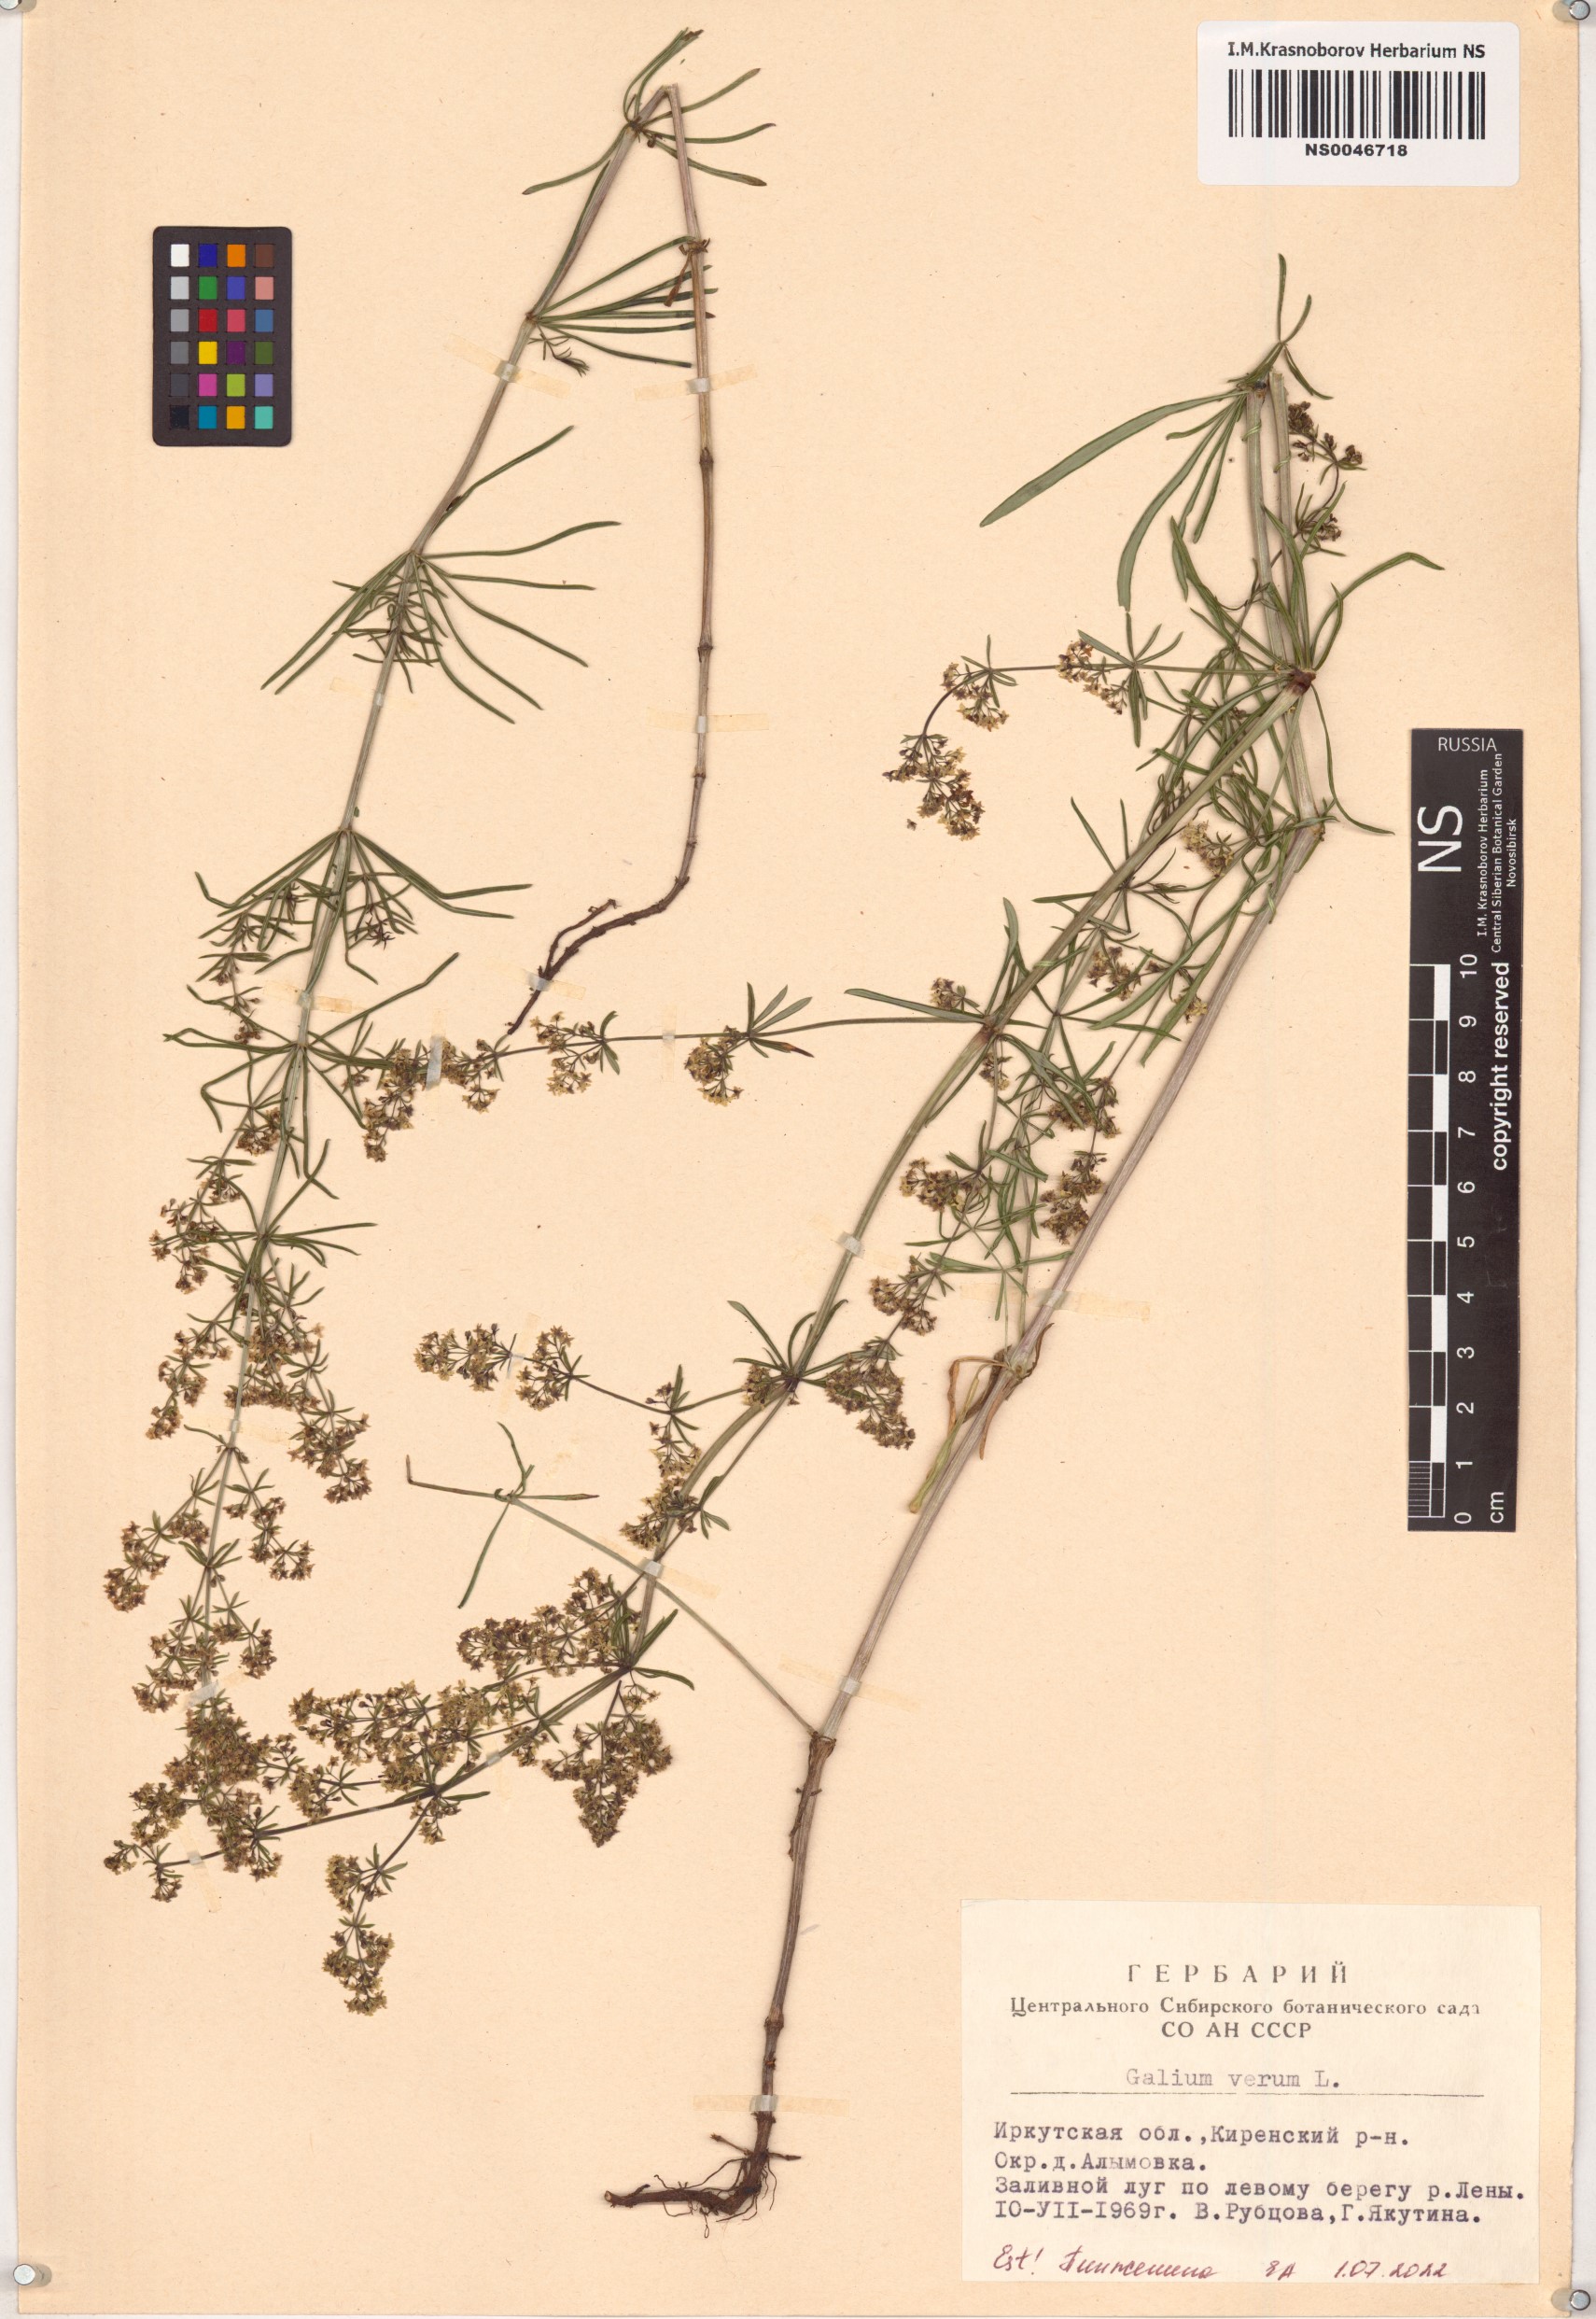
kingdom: Plantae
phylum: Tracheophyta
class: Magnoliopsida
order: Gentianales
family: Rubiaceae
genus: Galium
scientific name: Galium verum
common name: Lady's bedstraw
